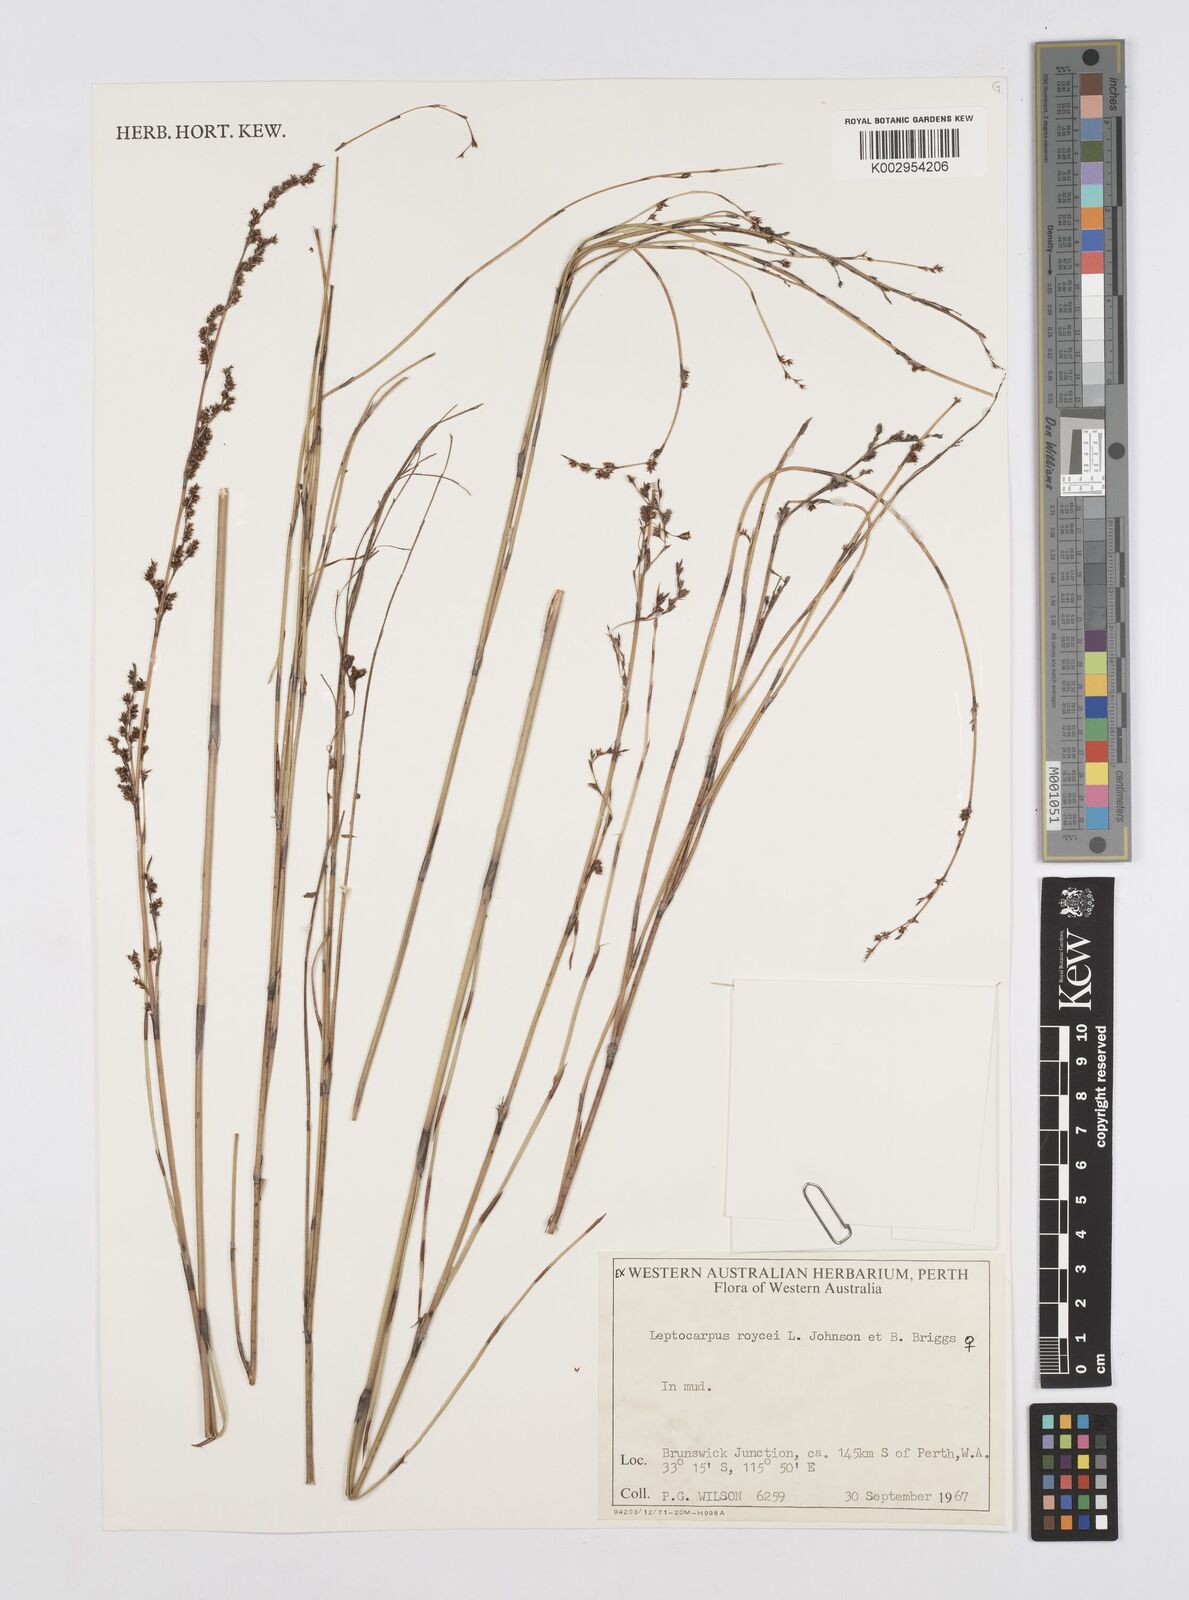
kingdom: Plantae
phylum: Tracheophyta
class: Liliopsida
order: Poales
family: Restionaceae
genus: Leptocarpus
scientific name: Leptocarpus roycei
